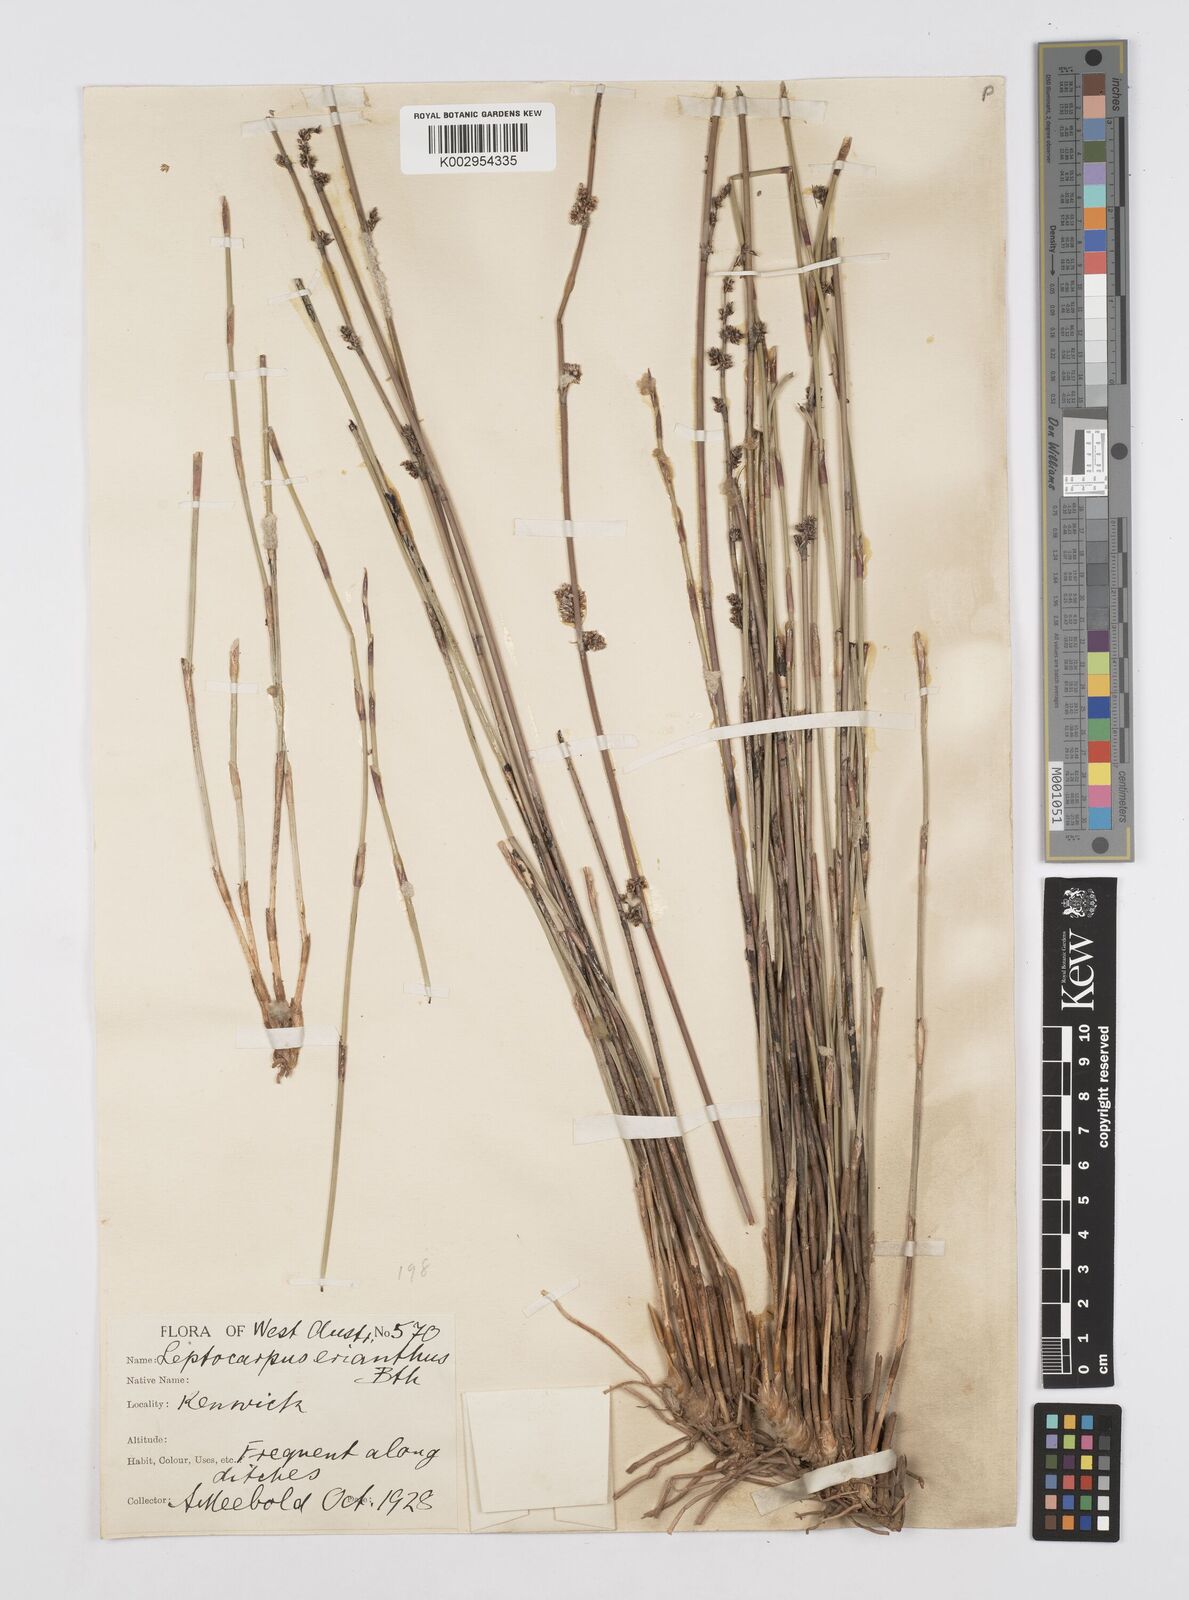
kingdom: Plantae
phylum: Tracheophyta
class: Liliopsida
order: Poales
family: Restionaceae
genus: Leptocarpus
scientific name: Leptocarpus canus
